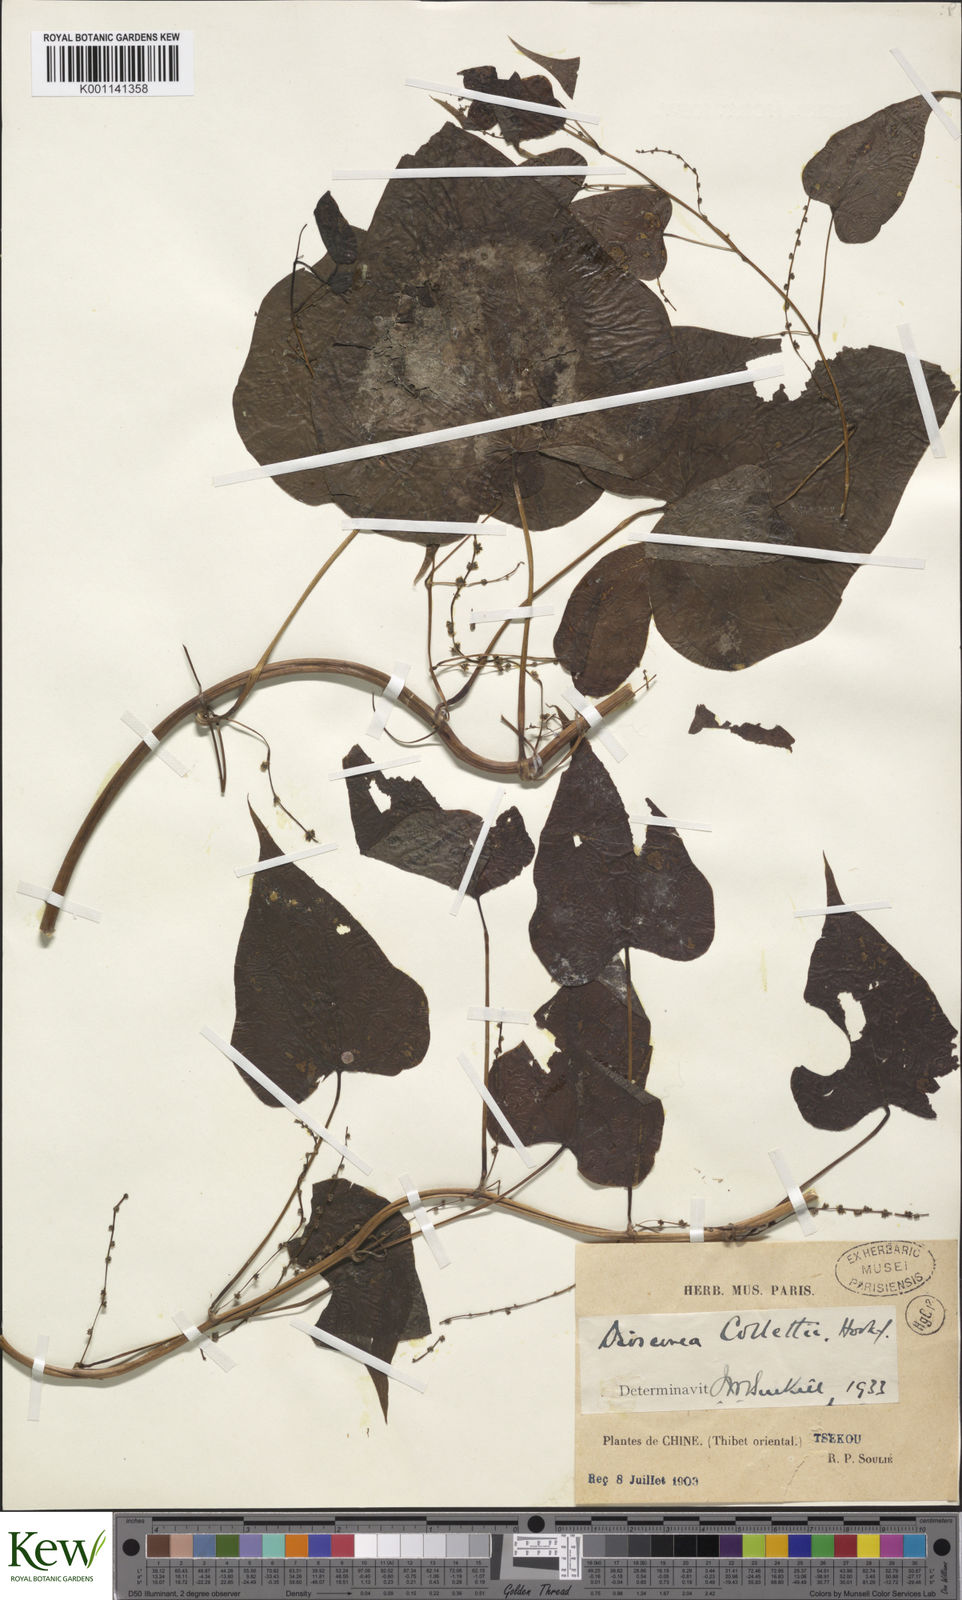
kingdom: Plantae
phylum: Tracheophyta
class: Liliopsida
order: Dioscoreales
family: Dioscoreaceae
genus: Dioscorea
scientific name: Dioscorea collettii
